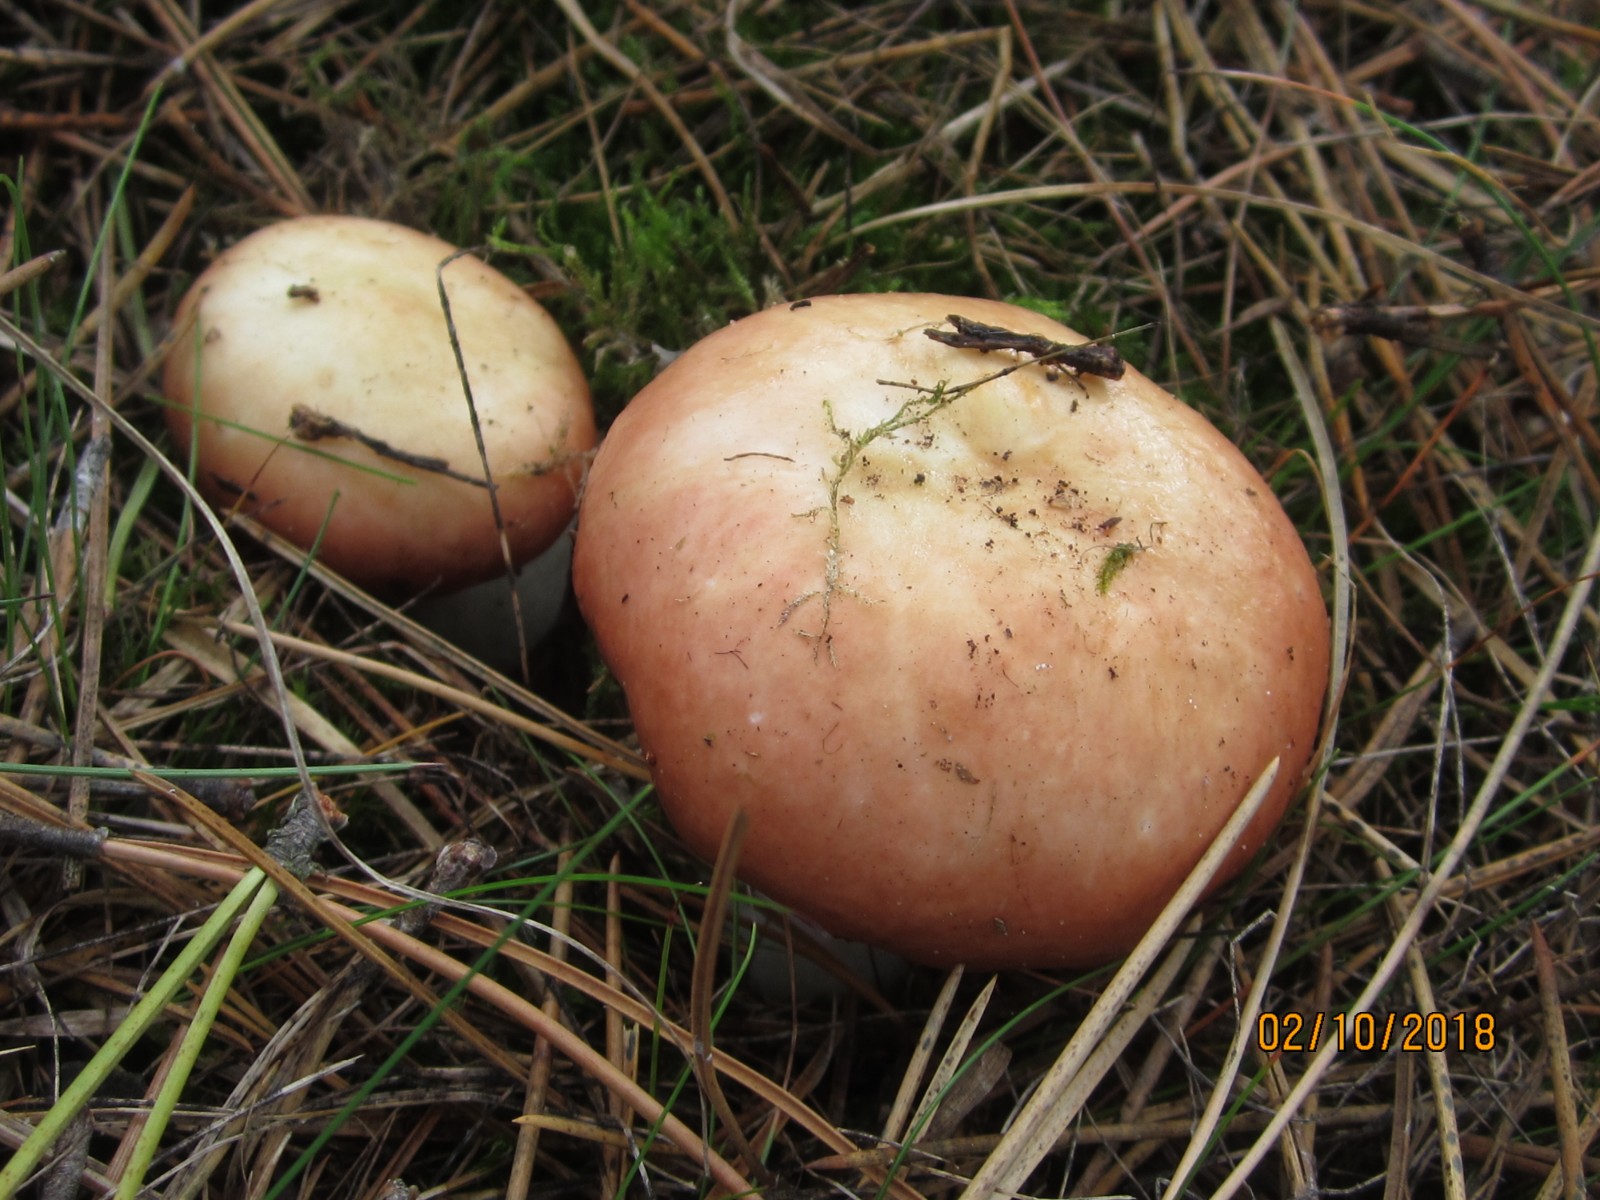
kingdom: Fungi
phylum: Basidiomycota
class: Agaricomycetes
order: Russulales
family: Russulaceae
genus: Russula
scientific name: Russula paludosa
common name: prægtig skørhat
